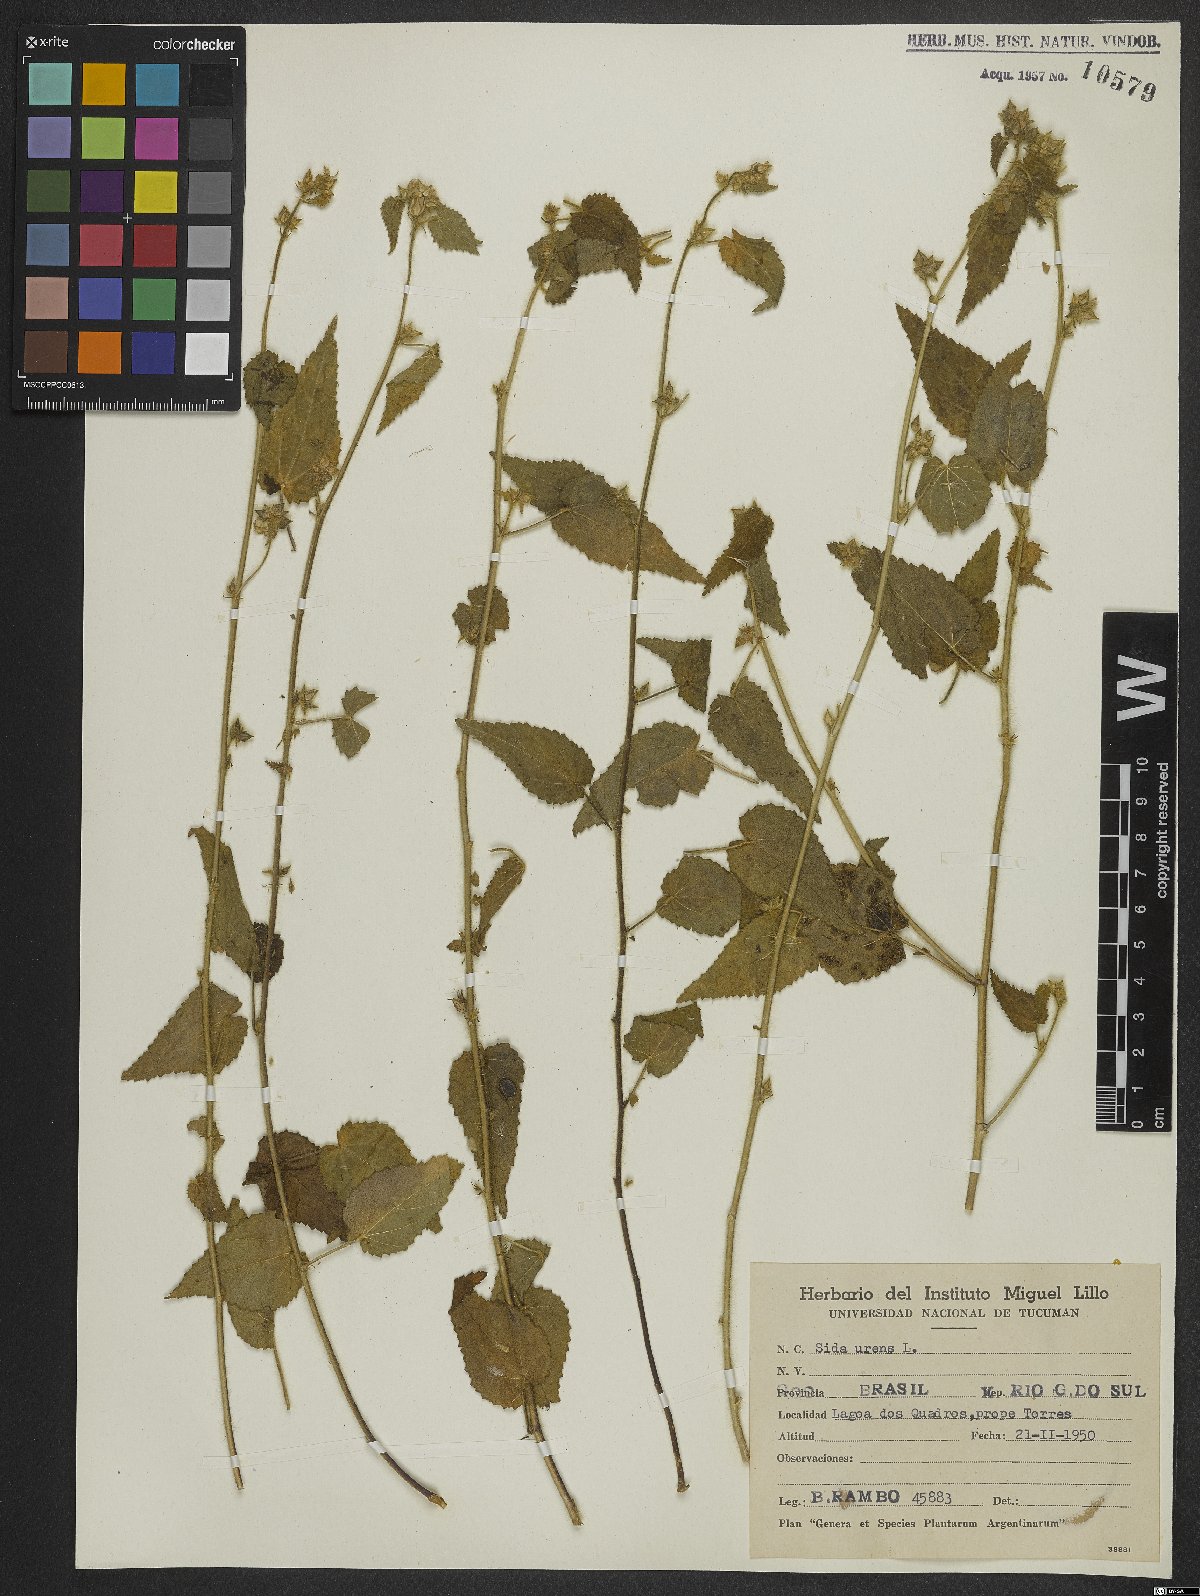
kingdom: Plantae
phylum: Tracheophyta
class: Magnoliopsida
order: Malvales
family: Malvaceae
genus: Sida
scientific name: Sida urens
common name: Tropical fanpetals
